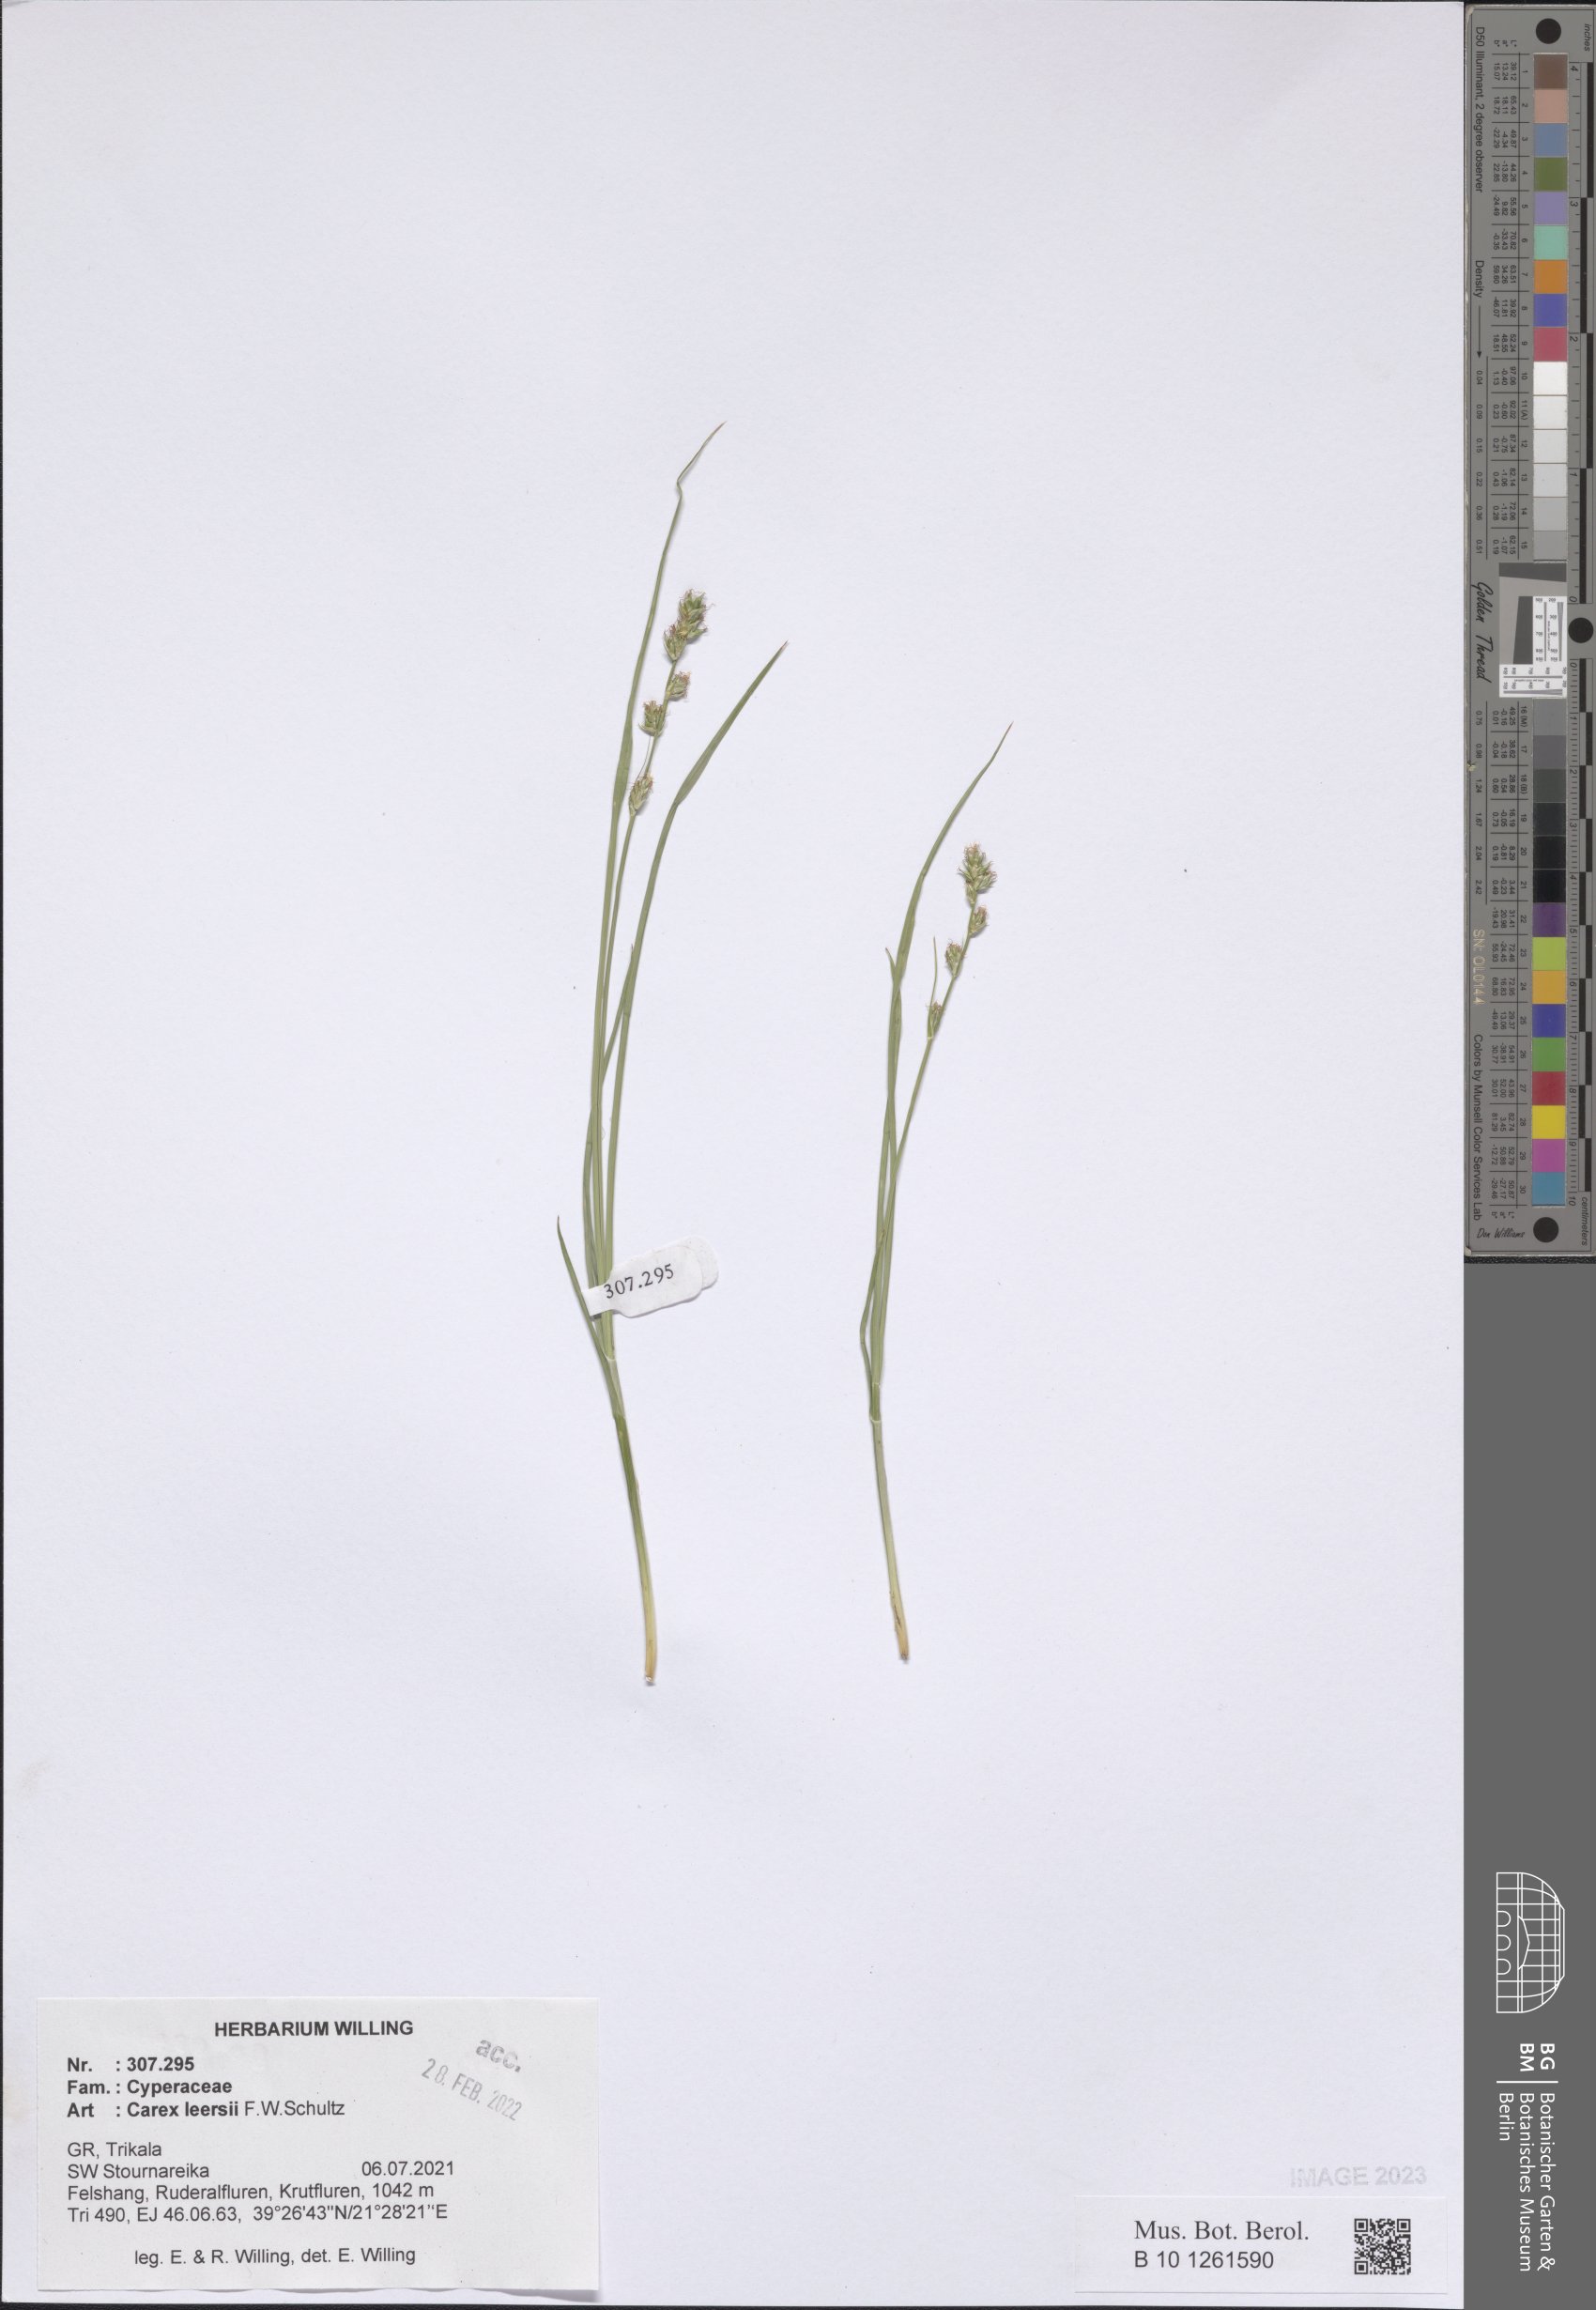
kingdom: Plantae
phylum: Tracheophyta
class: Liliopsida
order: Poales
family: Cyperaceae
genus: Carex
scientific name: Carex leersii
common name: Leers' sedge
